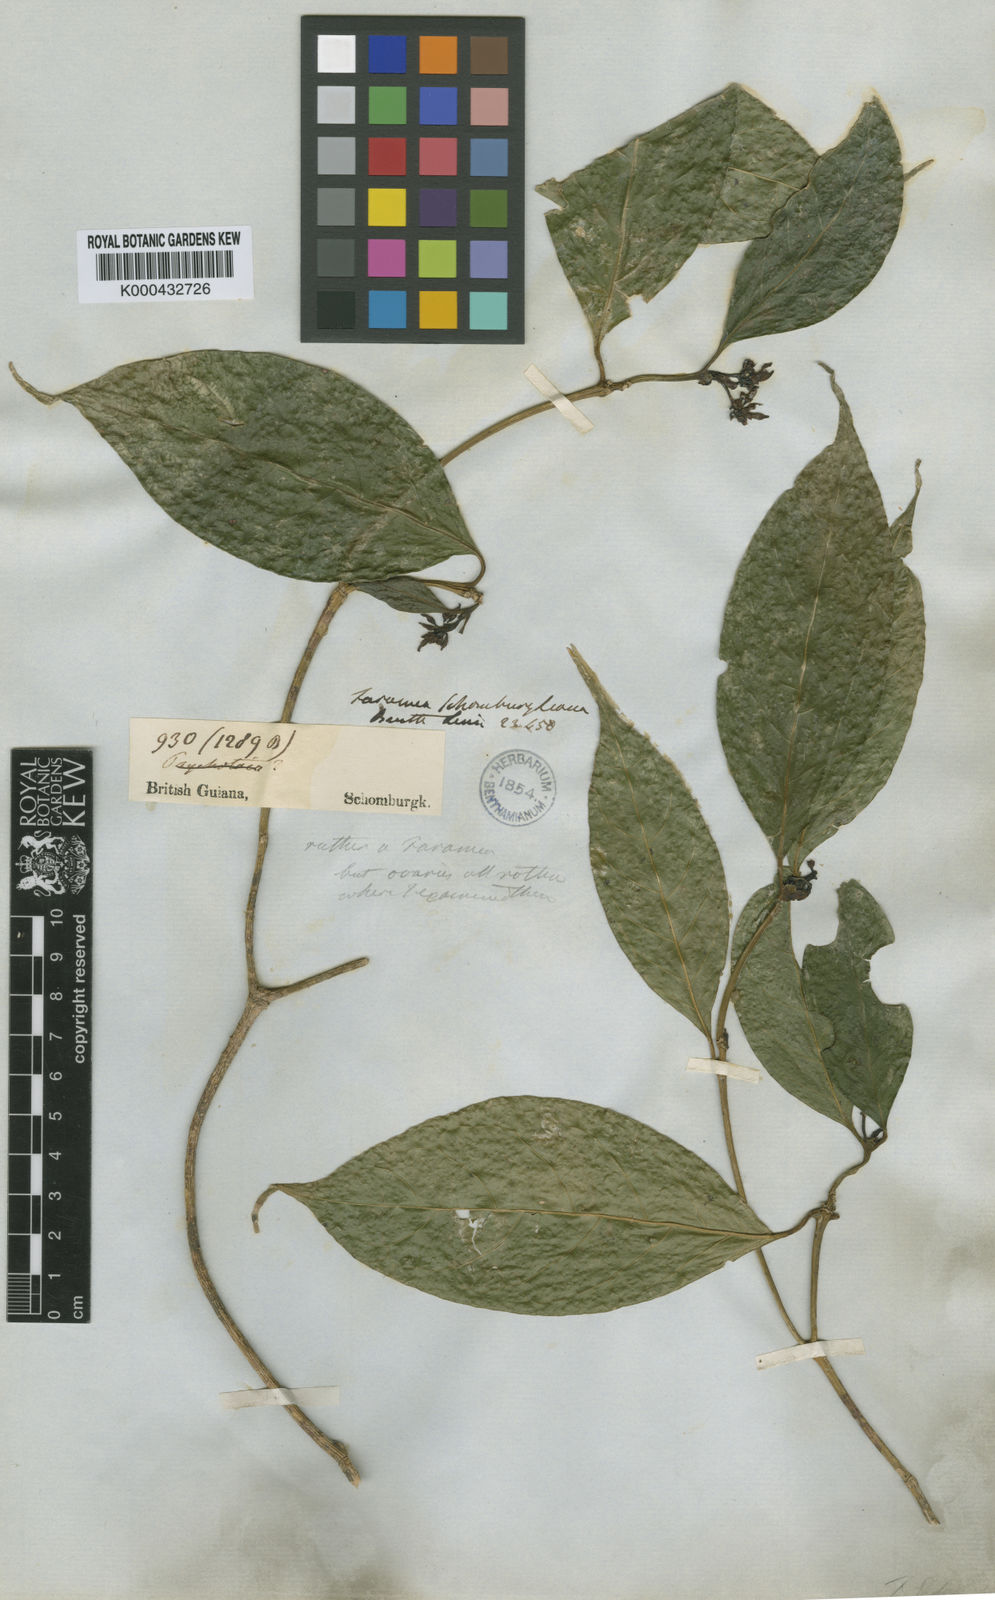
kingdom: Plantae
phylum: Tracheophyta
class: Magnoliopsida
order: Gentianales
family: Rubiaceae
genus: Coussarea
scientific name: Coussarea
